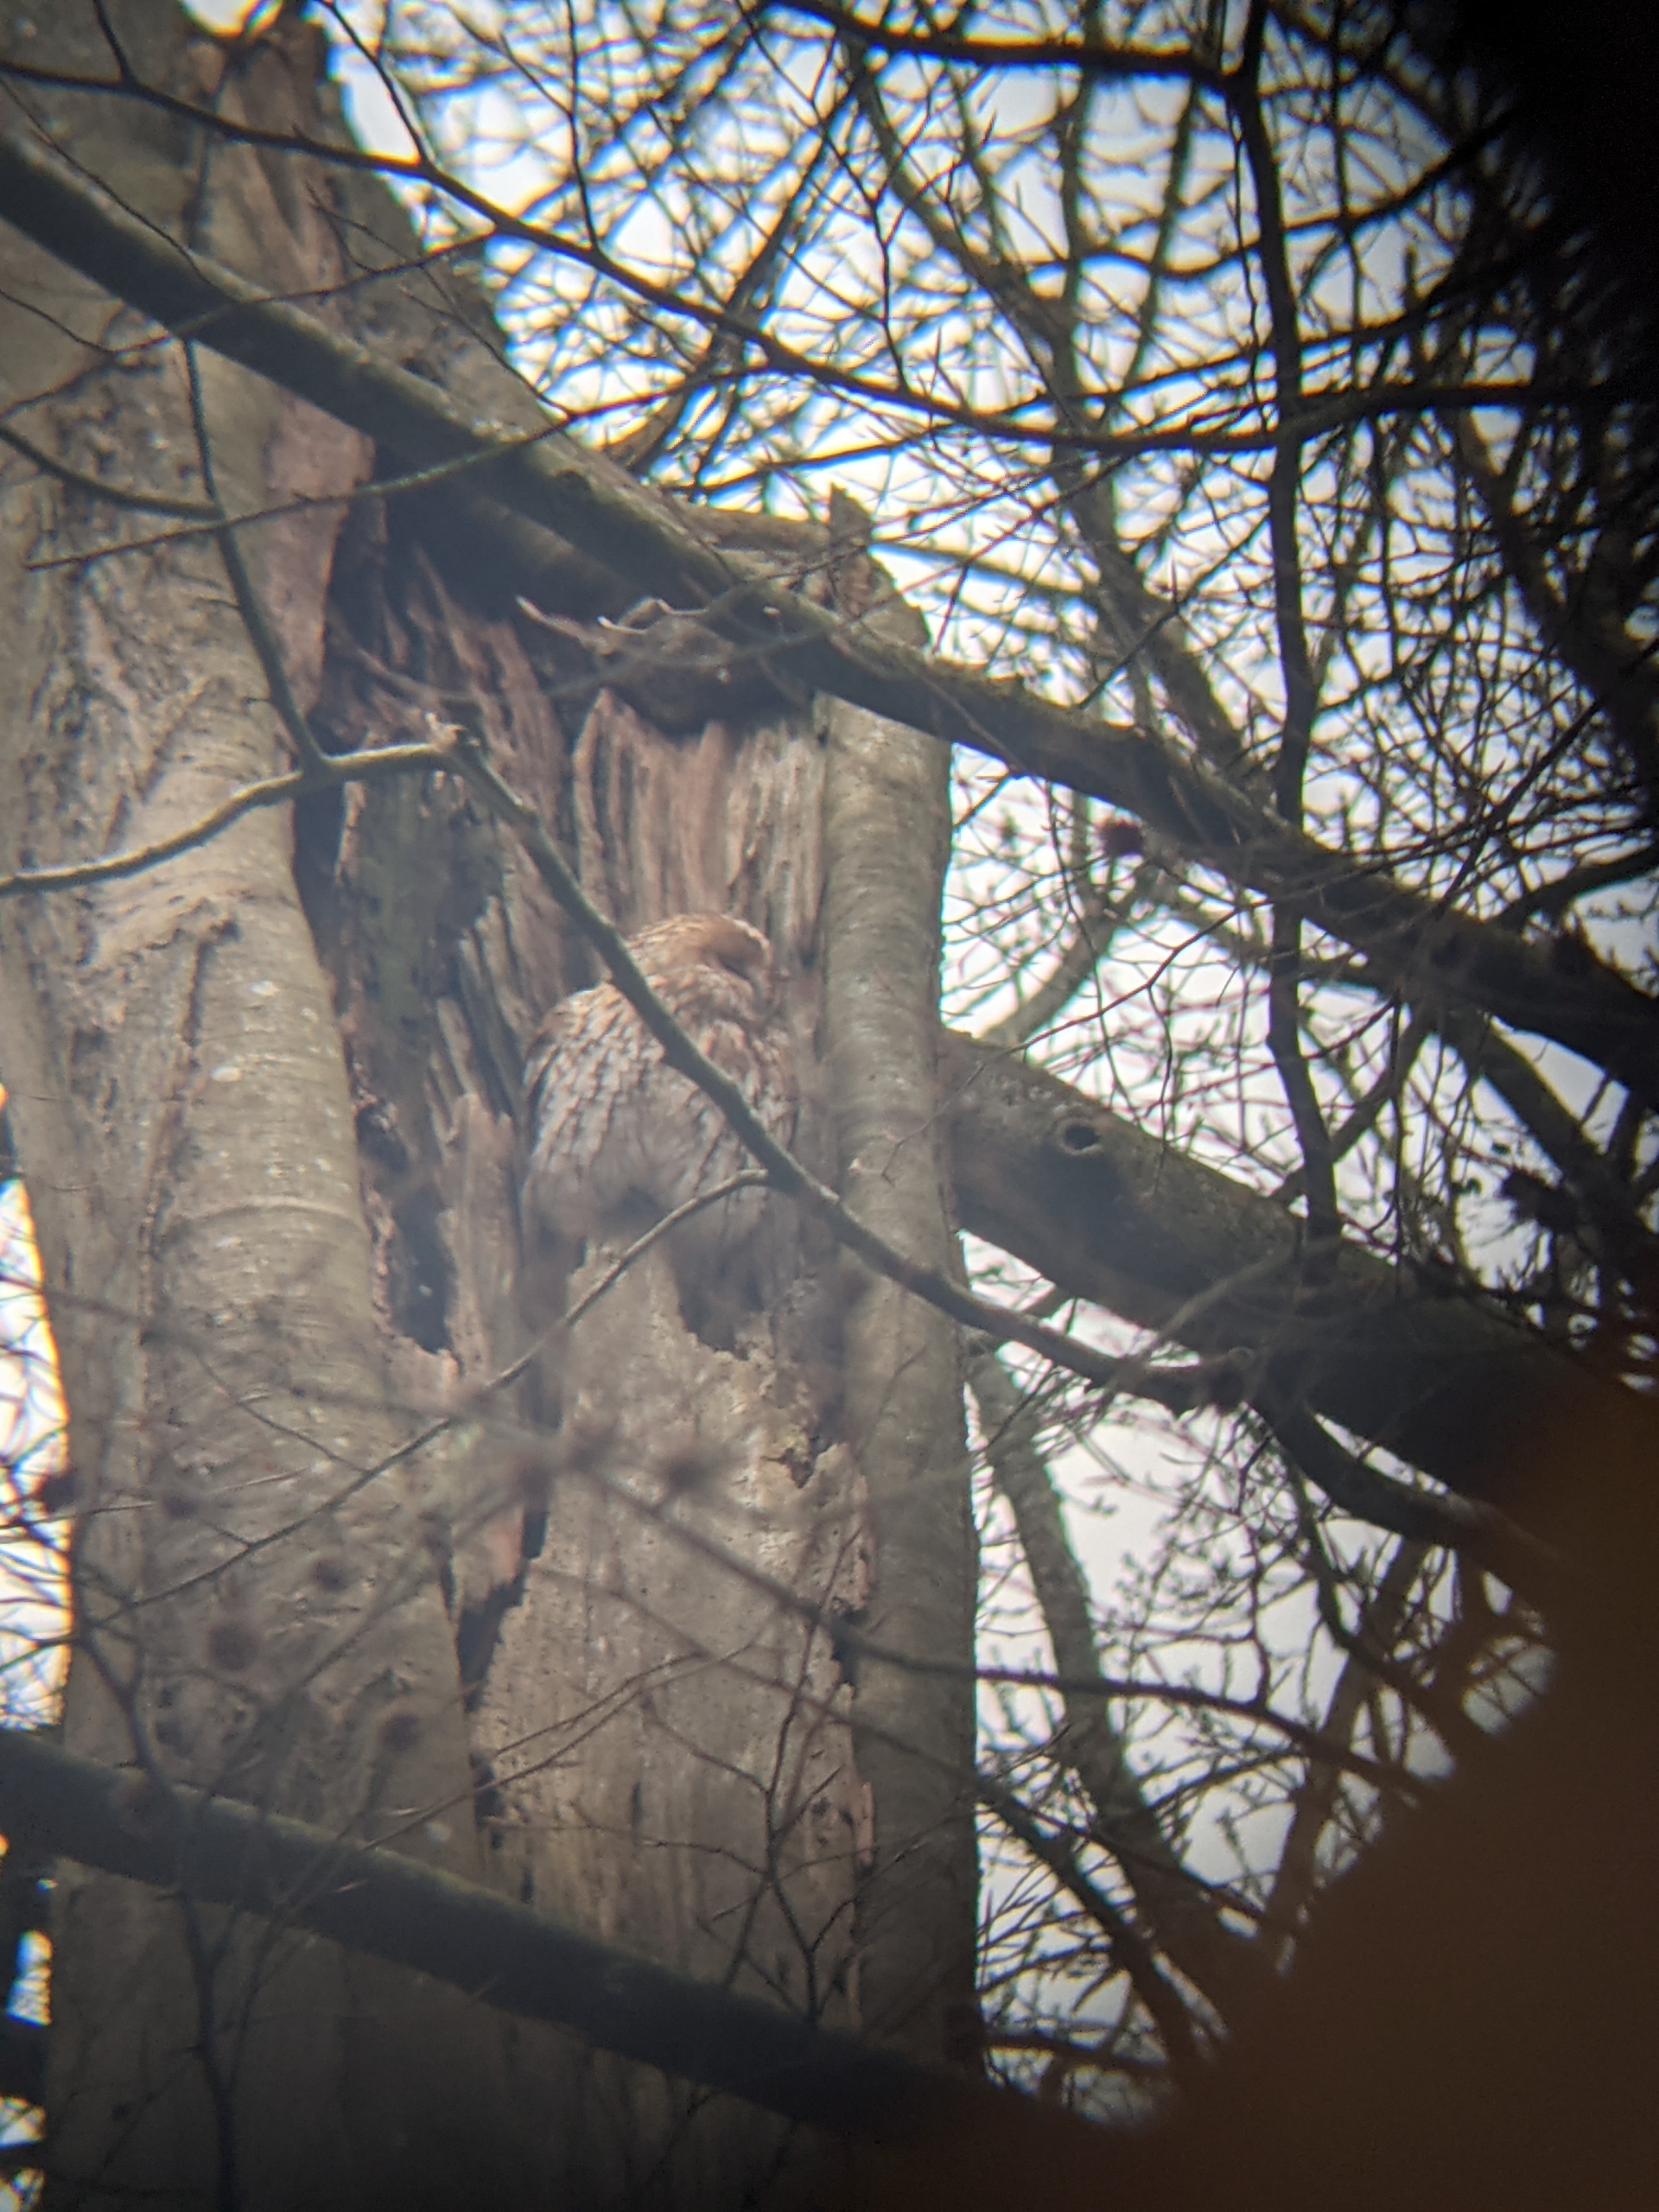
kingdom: Animalia
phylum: Chordata
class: Aves
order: Strigiformes
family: Strigidae
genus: Strix
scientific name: Strix aluco
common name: Natugle
